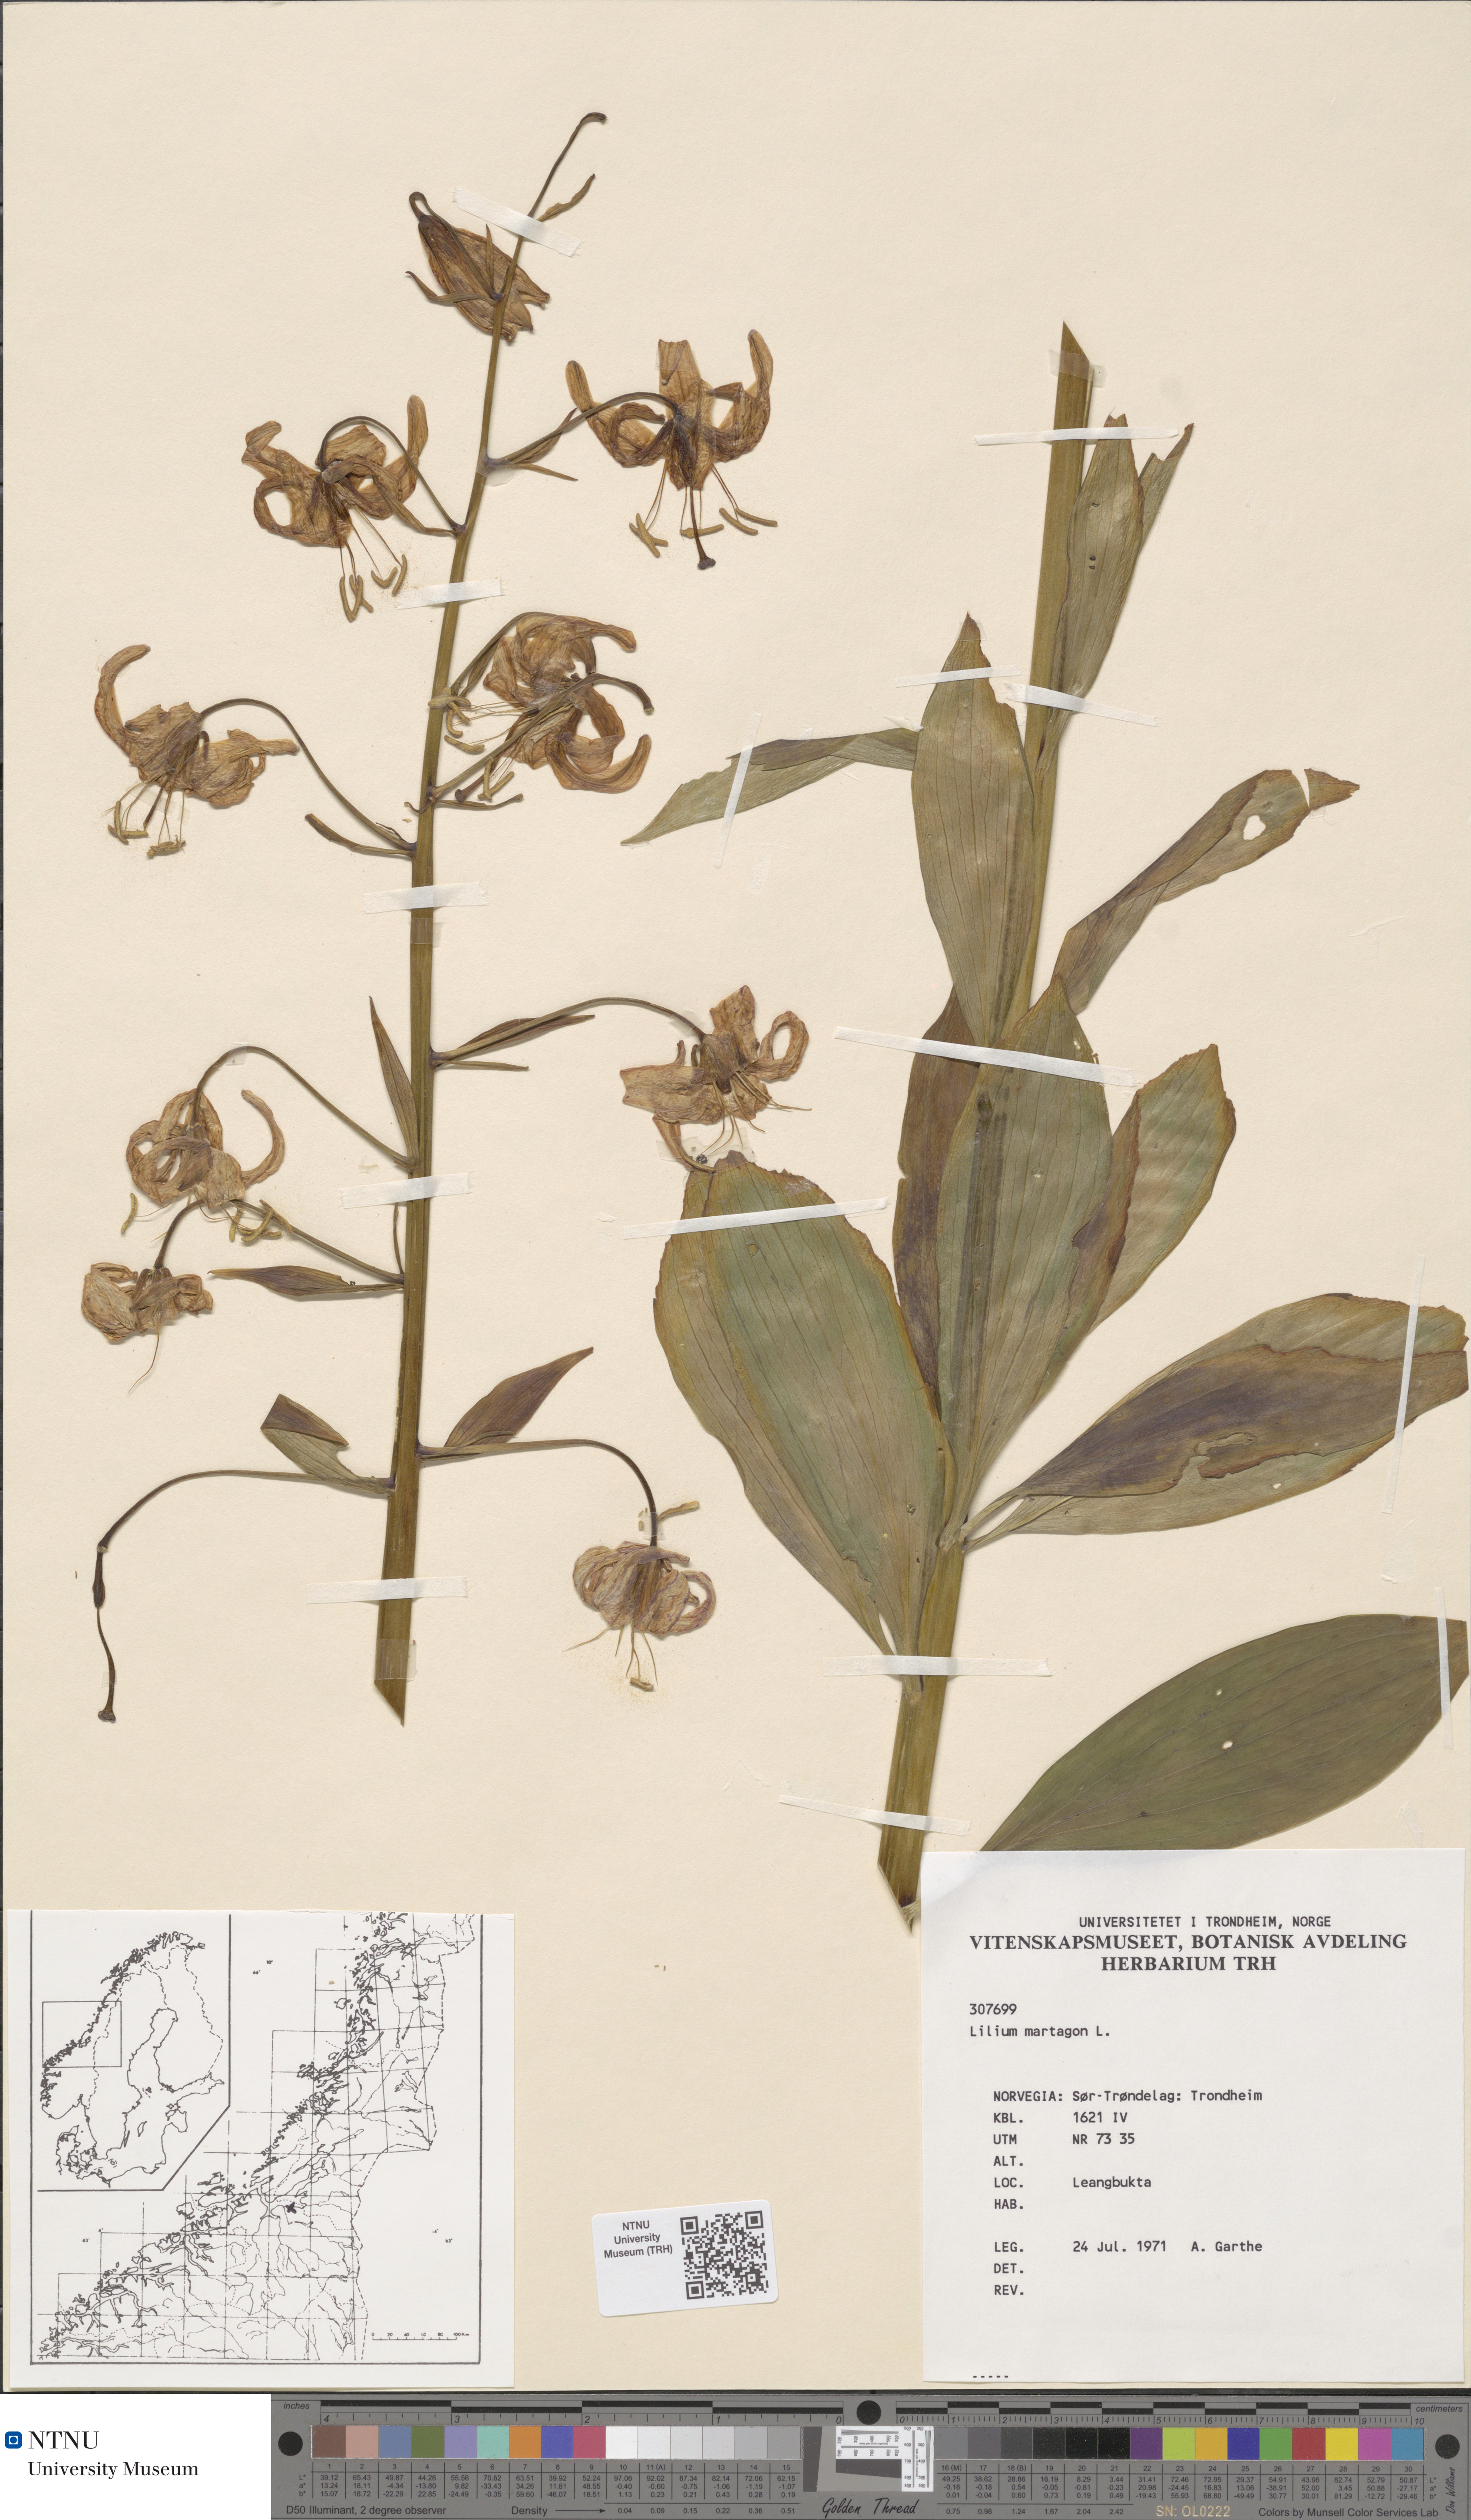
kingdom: Plantae
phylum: Tracheophyta
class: Liliopsida
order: Liliales
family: Liliaceae
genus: Lilium
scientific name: Lilium martagon
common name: Martagon lily
